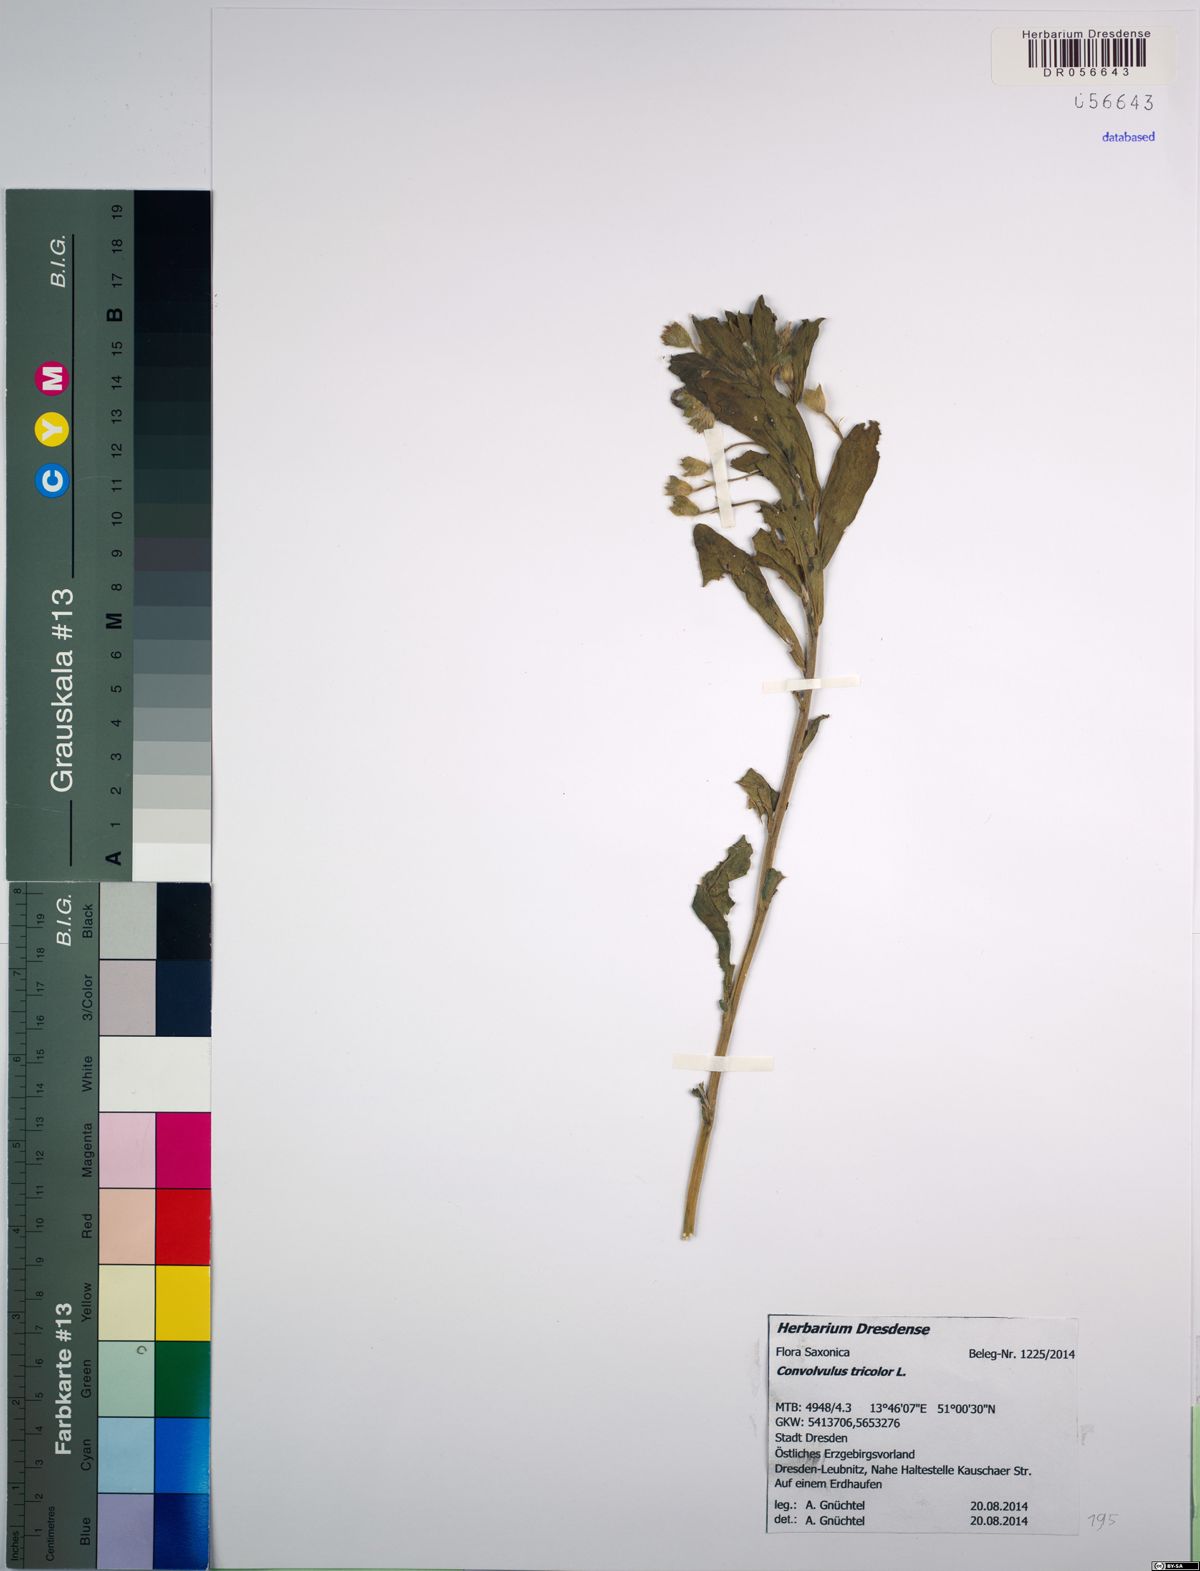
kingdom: Plantae
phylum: Tracheophyta
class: Magnoliopsida
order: Solanales
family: Convolvulaceae
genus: Convolvulus
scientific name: Convolvulus tricolor
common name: Dwarf morning-glory
